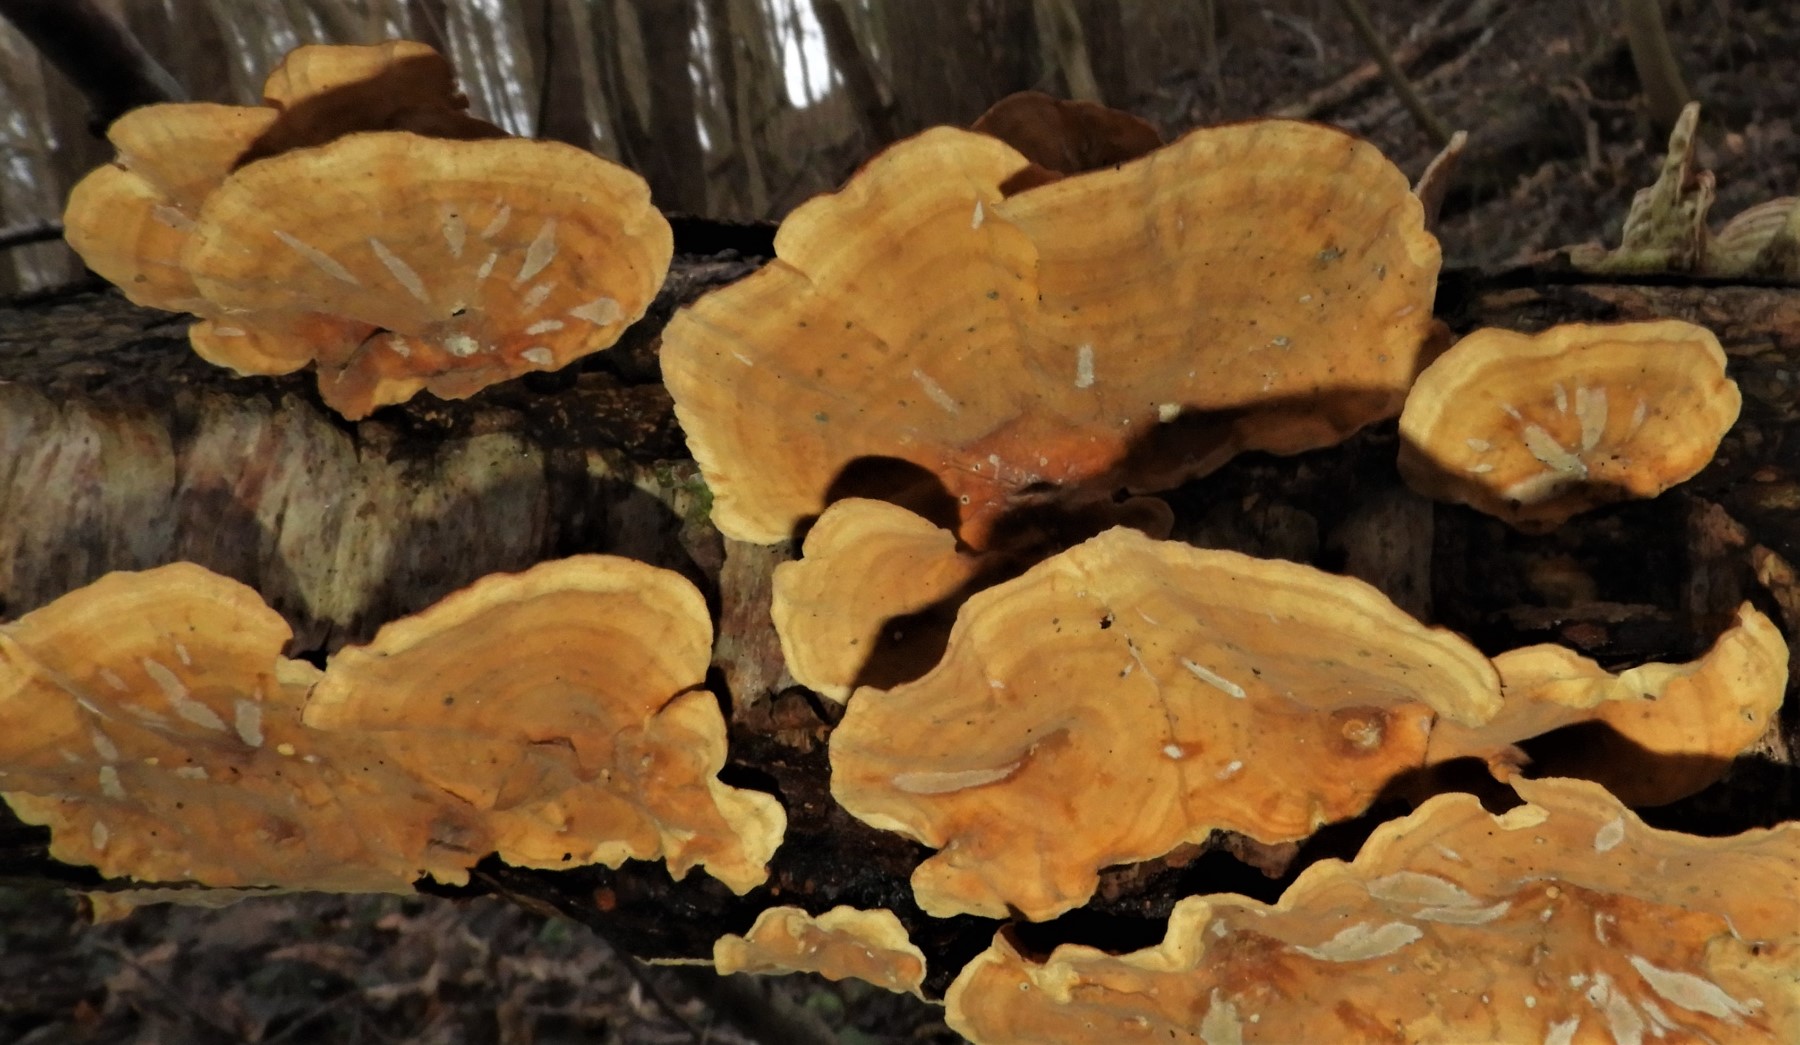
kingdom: Fungi
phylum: Basidiomycota
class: Agaricomycetes
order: Russulales
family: Stereaceae
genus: Stereum
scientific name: Stereum subtomentosum
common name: smuk lædersvamp
